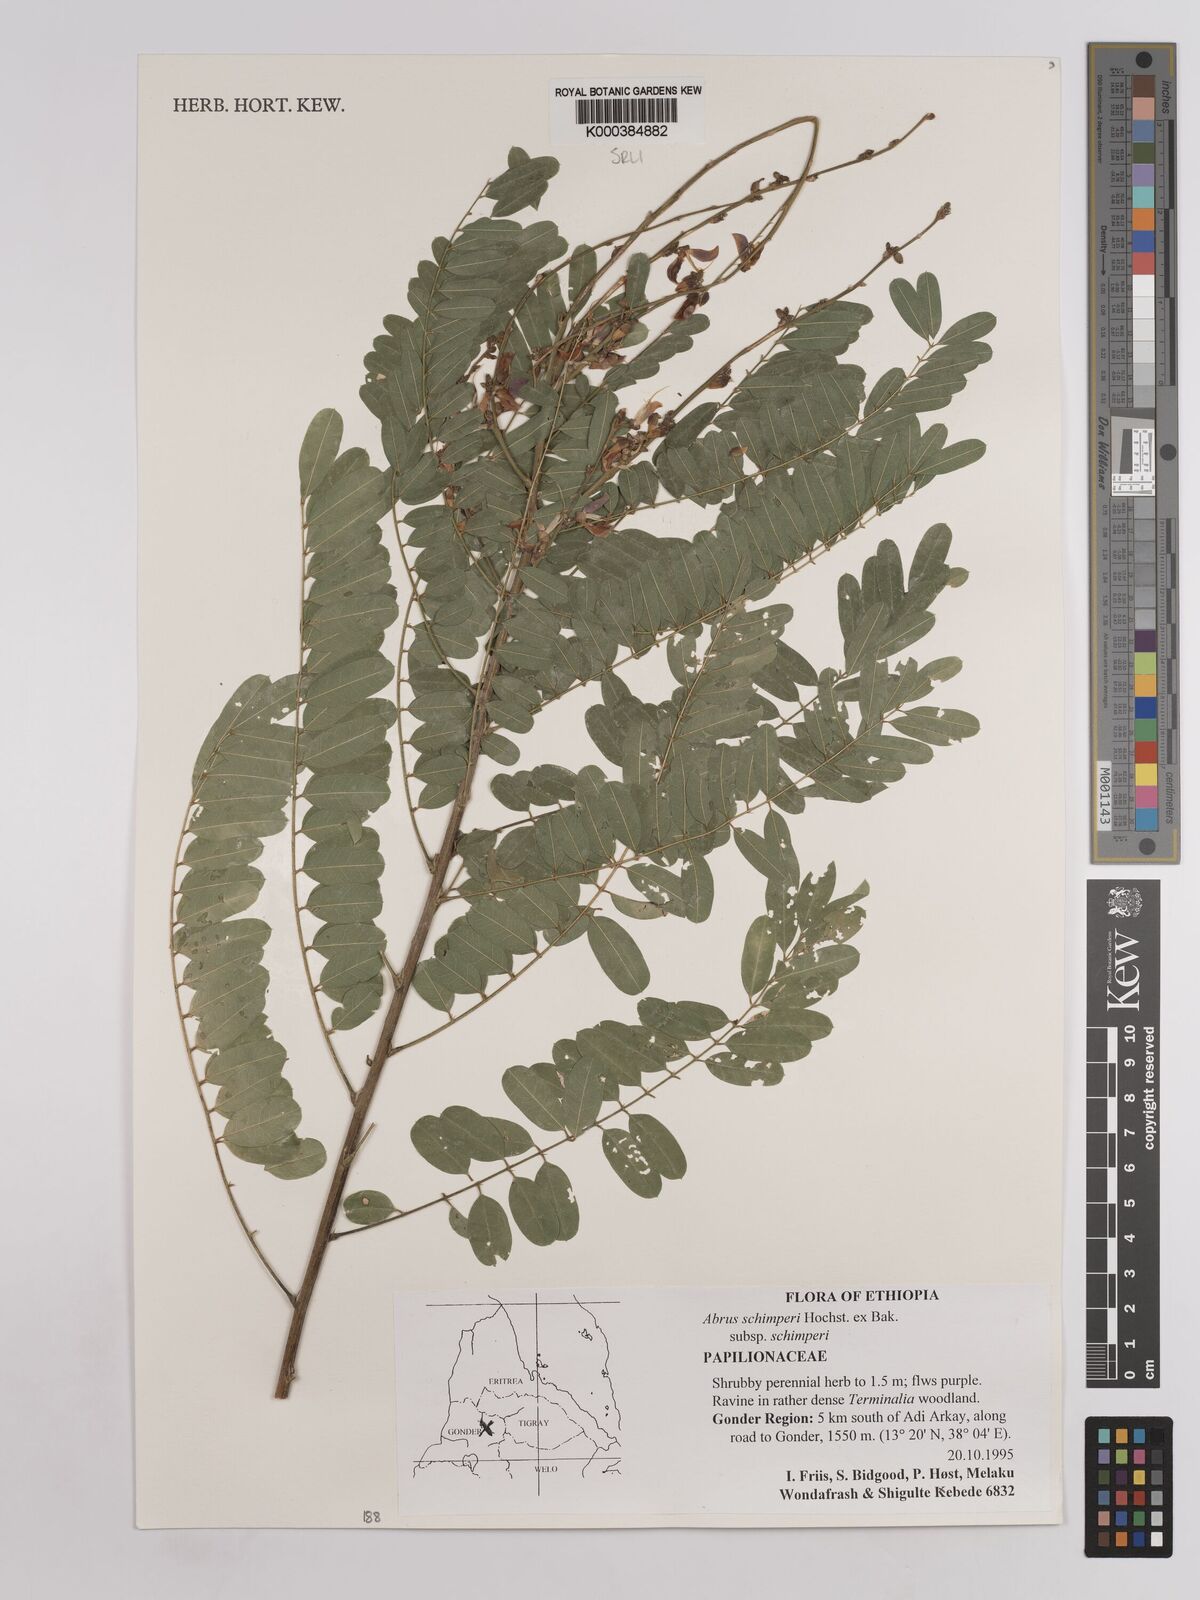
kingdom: Plantae
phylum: Tracheophyta
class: Magnoliopsida
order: Fabales
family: Fabaceae
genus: Abrus
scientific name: Abrus
